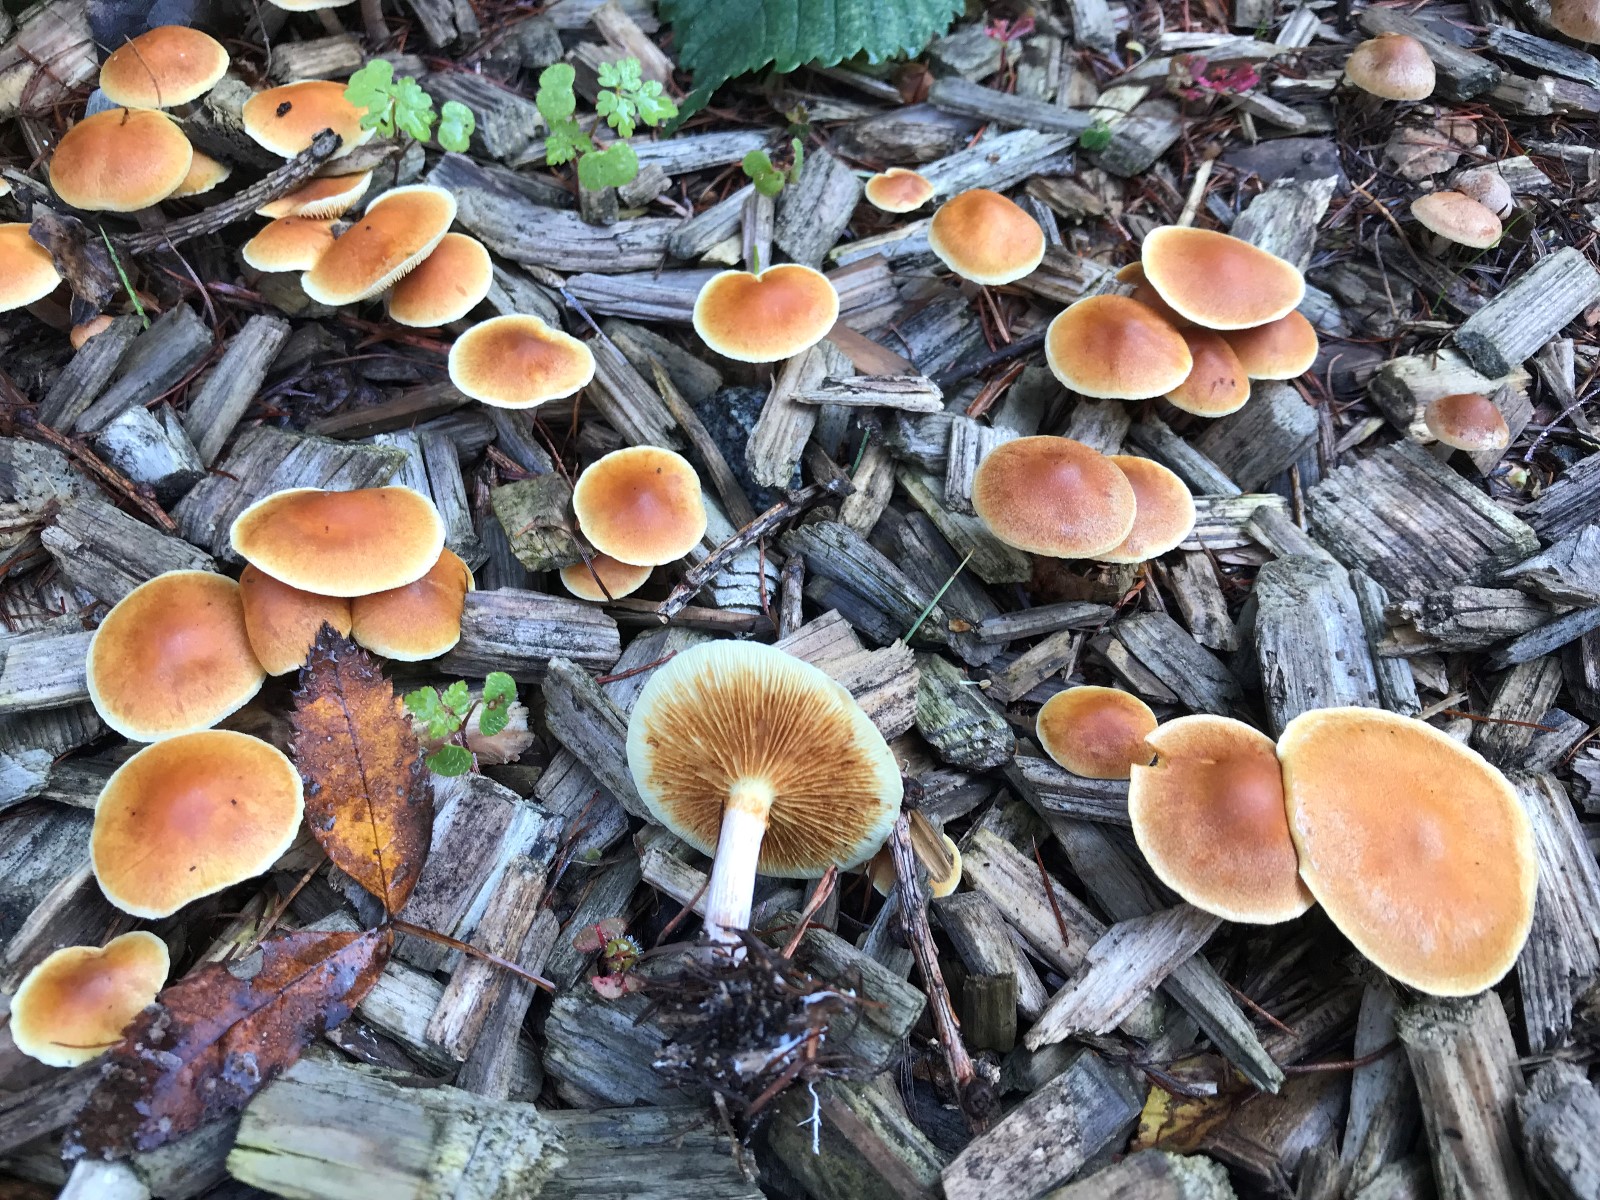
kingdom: Fungi
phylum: Basidiomycota
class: Agaricomycetes
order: Agaricales
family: Hymenogastraceae
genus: Gymnopilus
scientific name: Gymnopilus penetrans
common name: plettet flammehat
